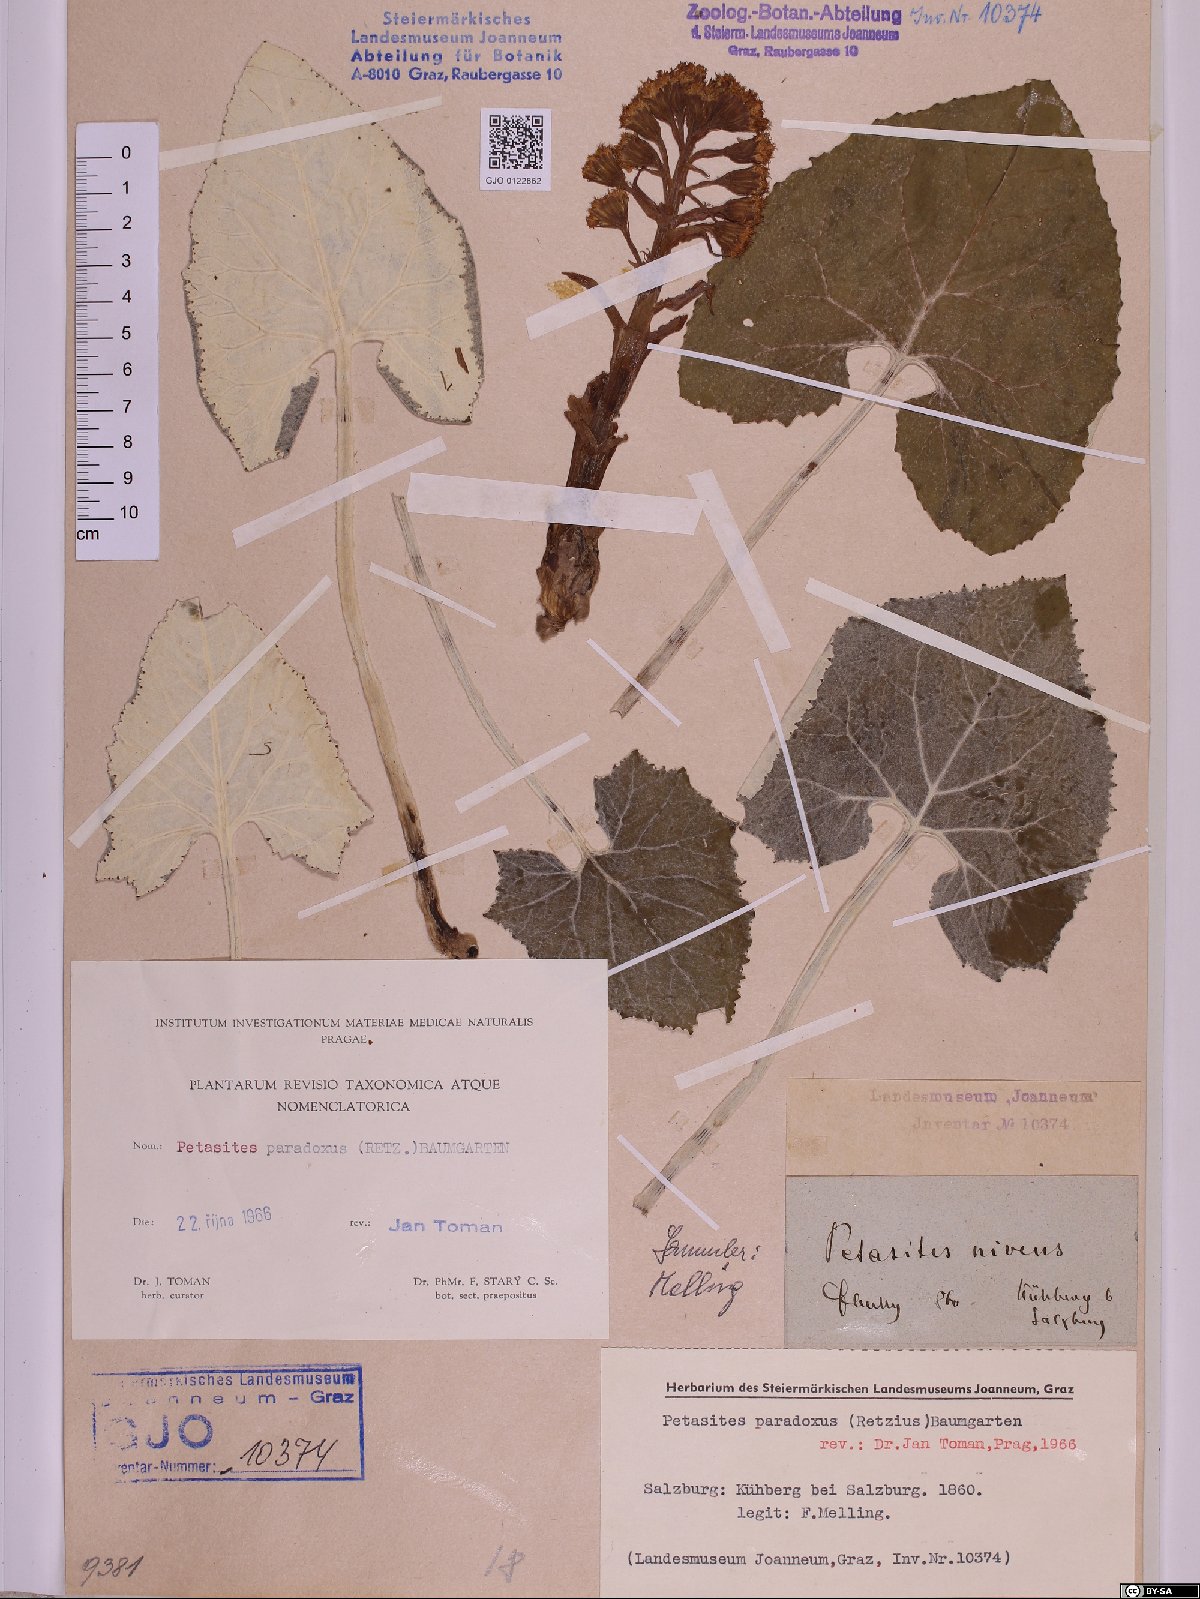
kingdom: Plantae
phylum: Tracheophyta
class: Magnoliopsida
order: Asterales
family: Asteraceae
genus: Petasites
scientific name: Petasites paradoxus
